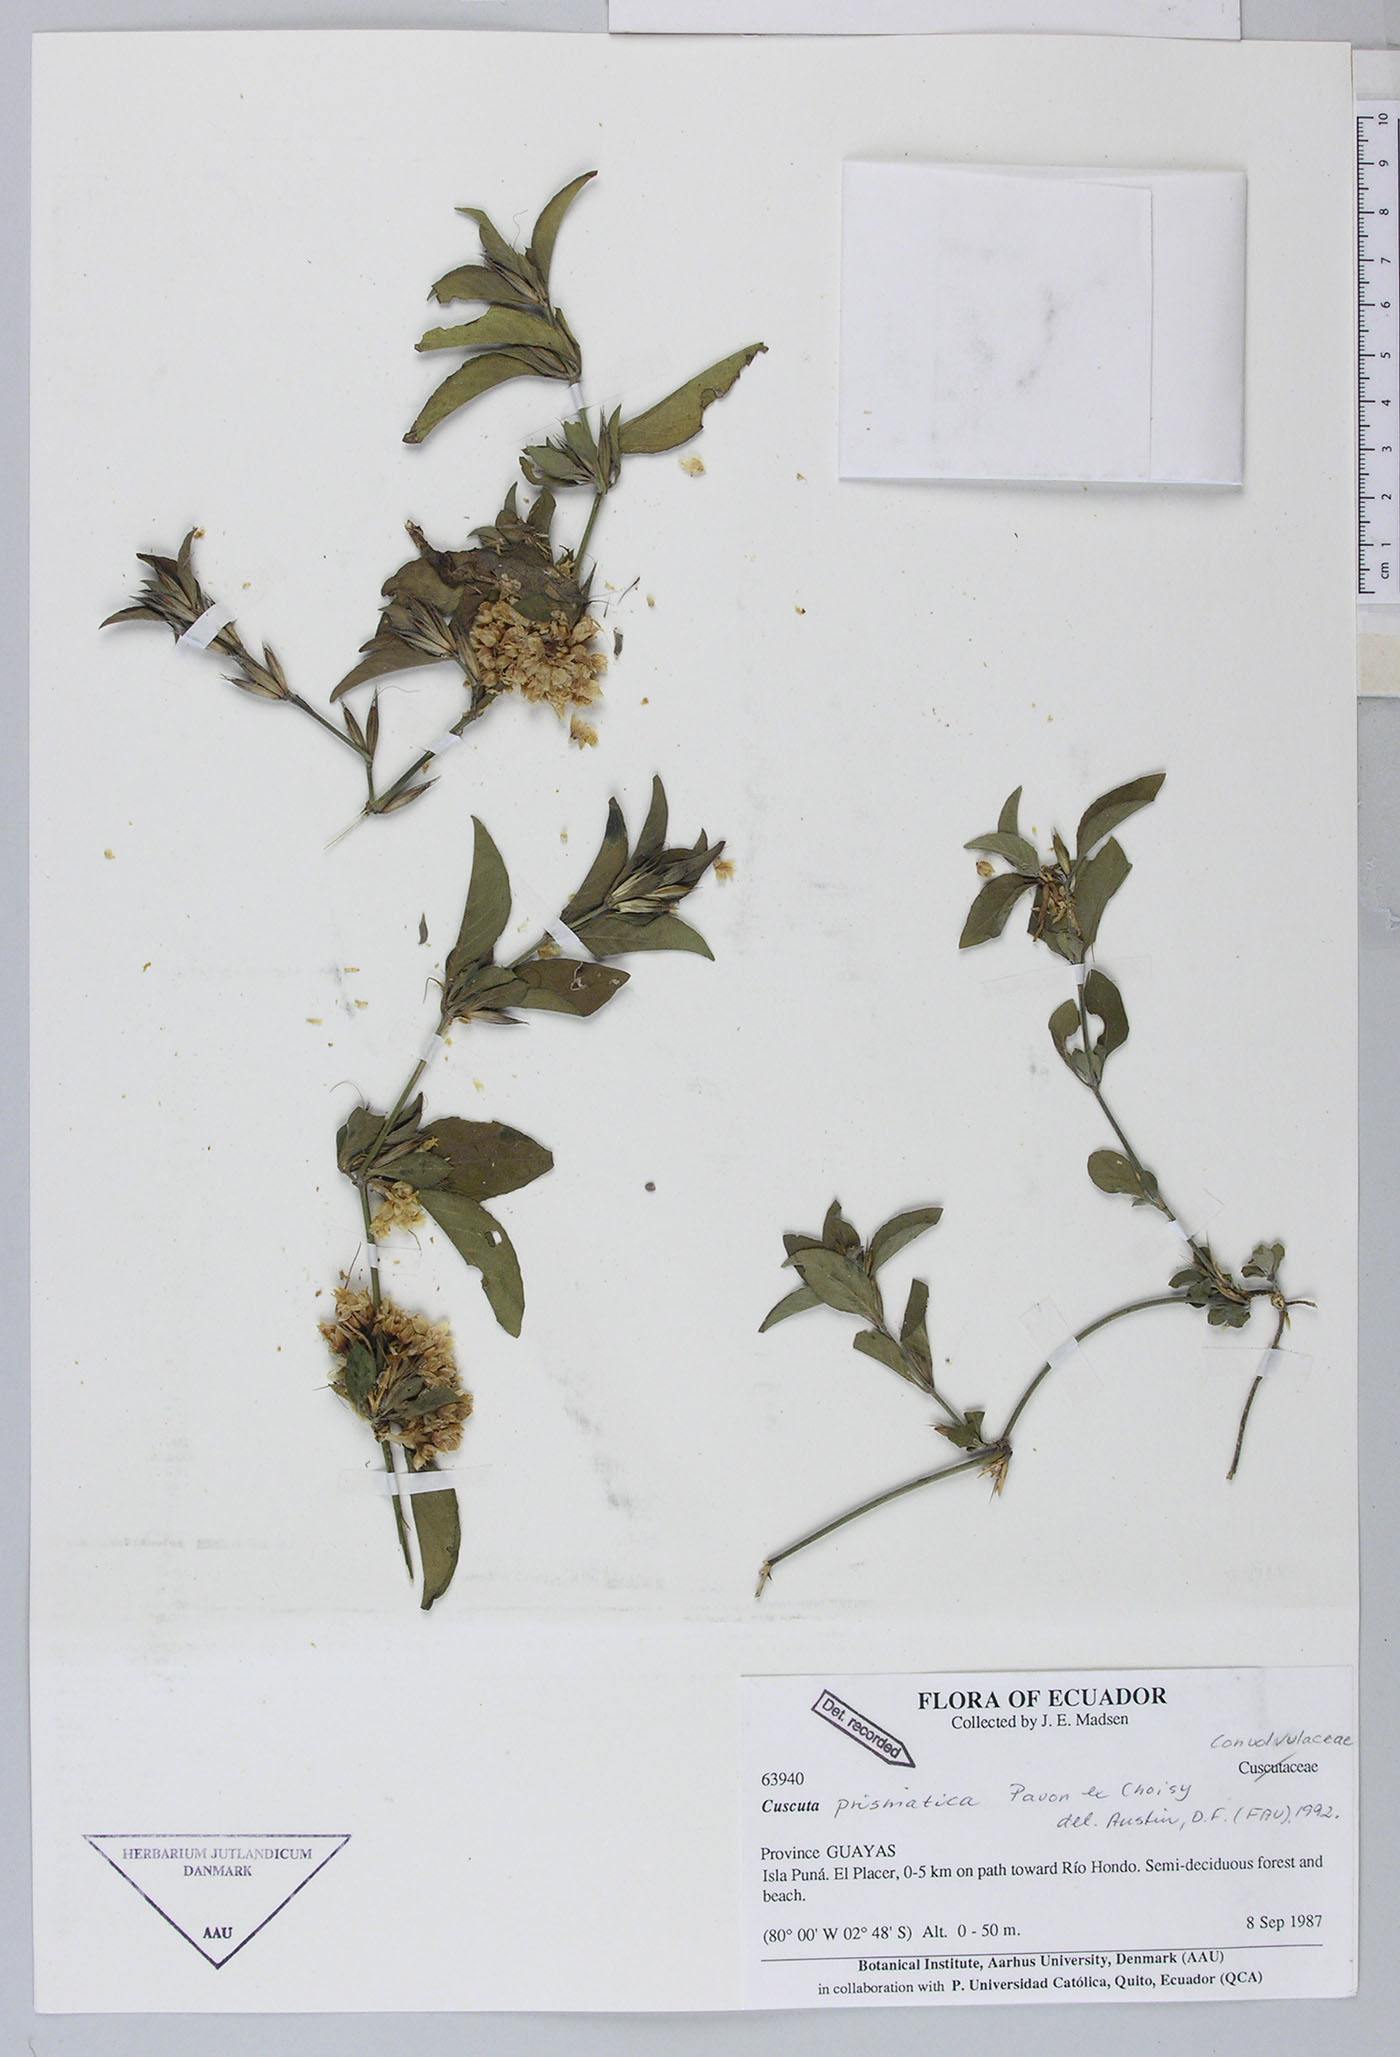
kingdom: Plantae
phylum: Tracheophyta
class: Magnoliopsida
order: Solanales
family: Convolvulaceae
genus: Cuscuta
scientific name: Cuscuta paitana
